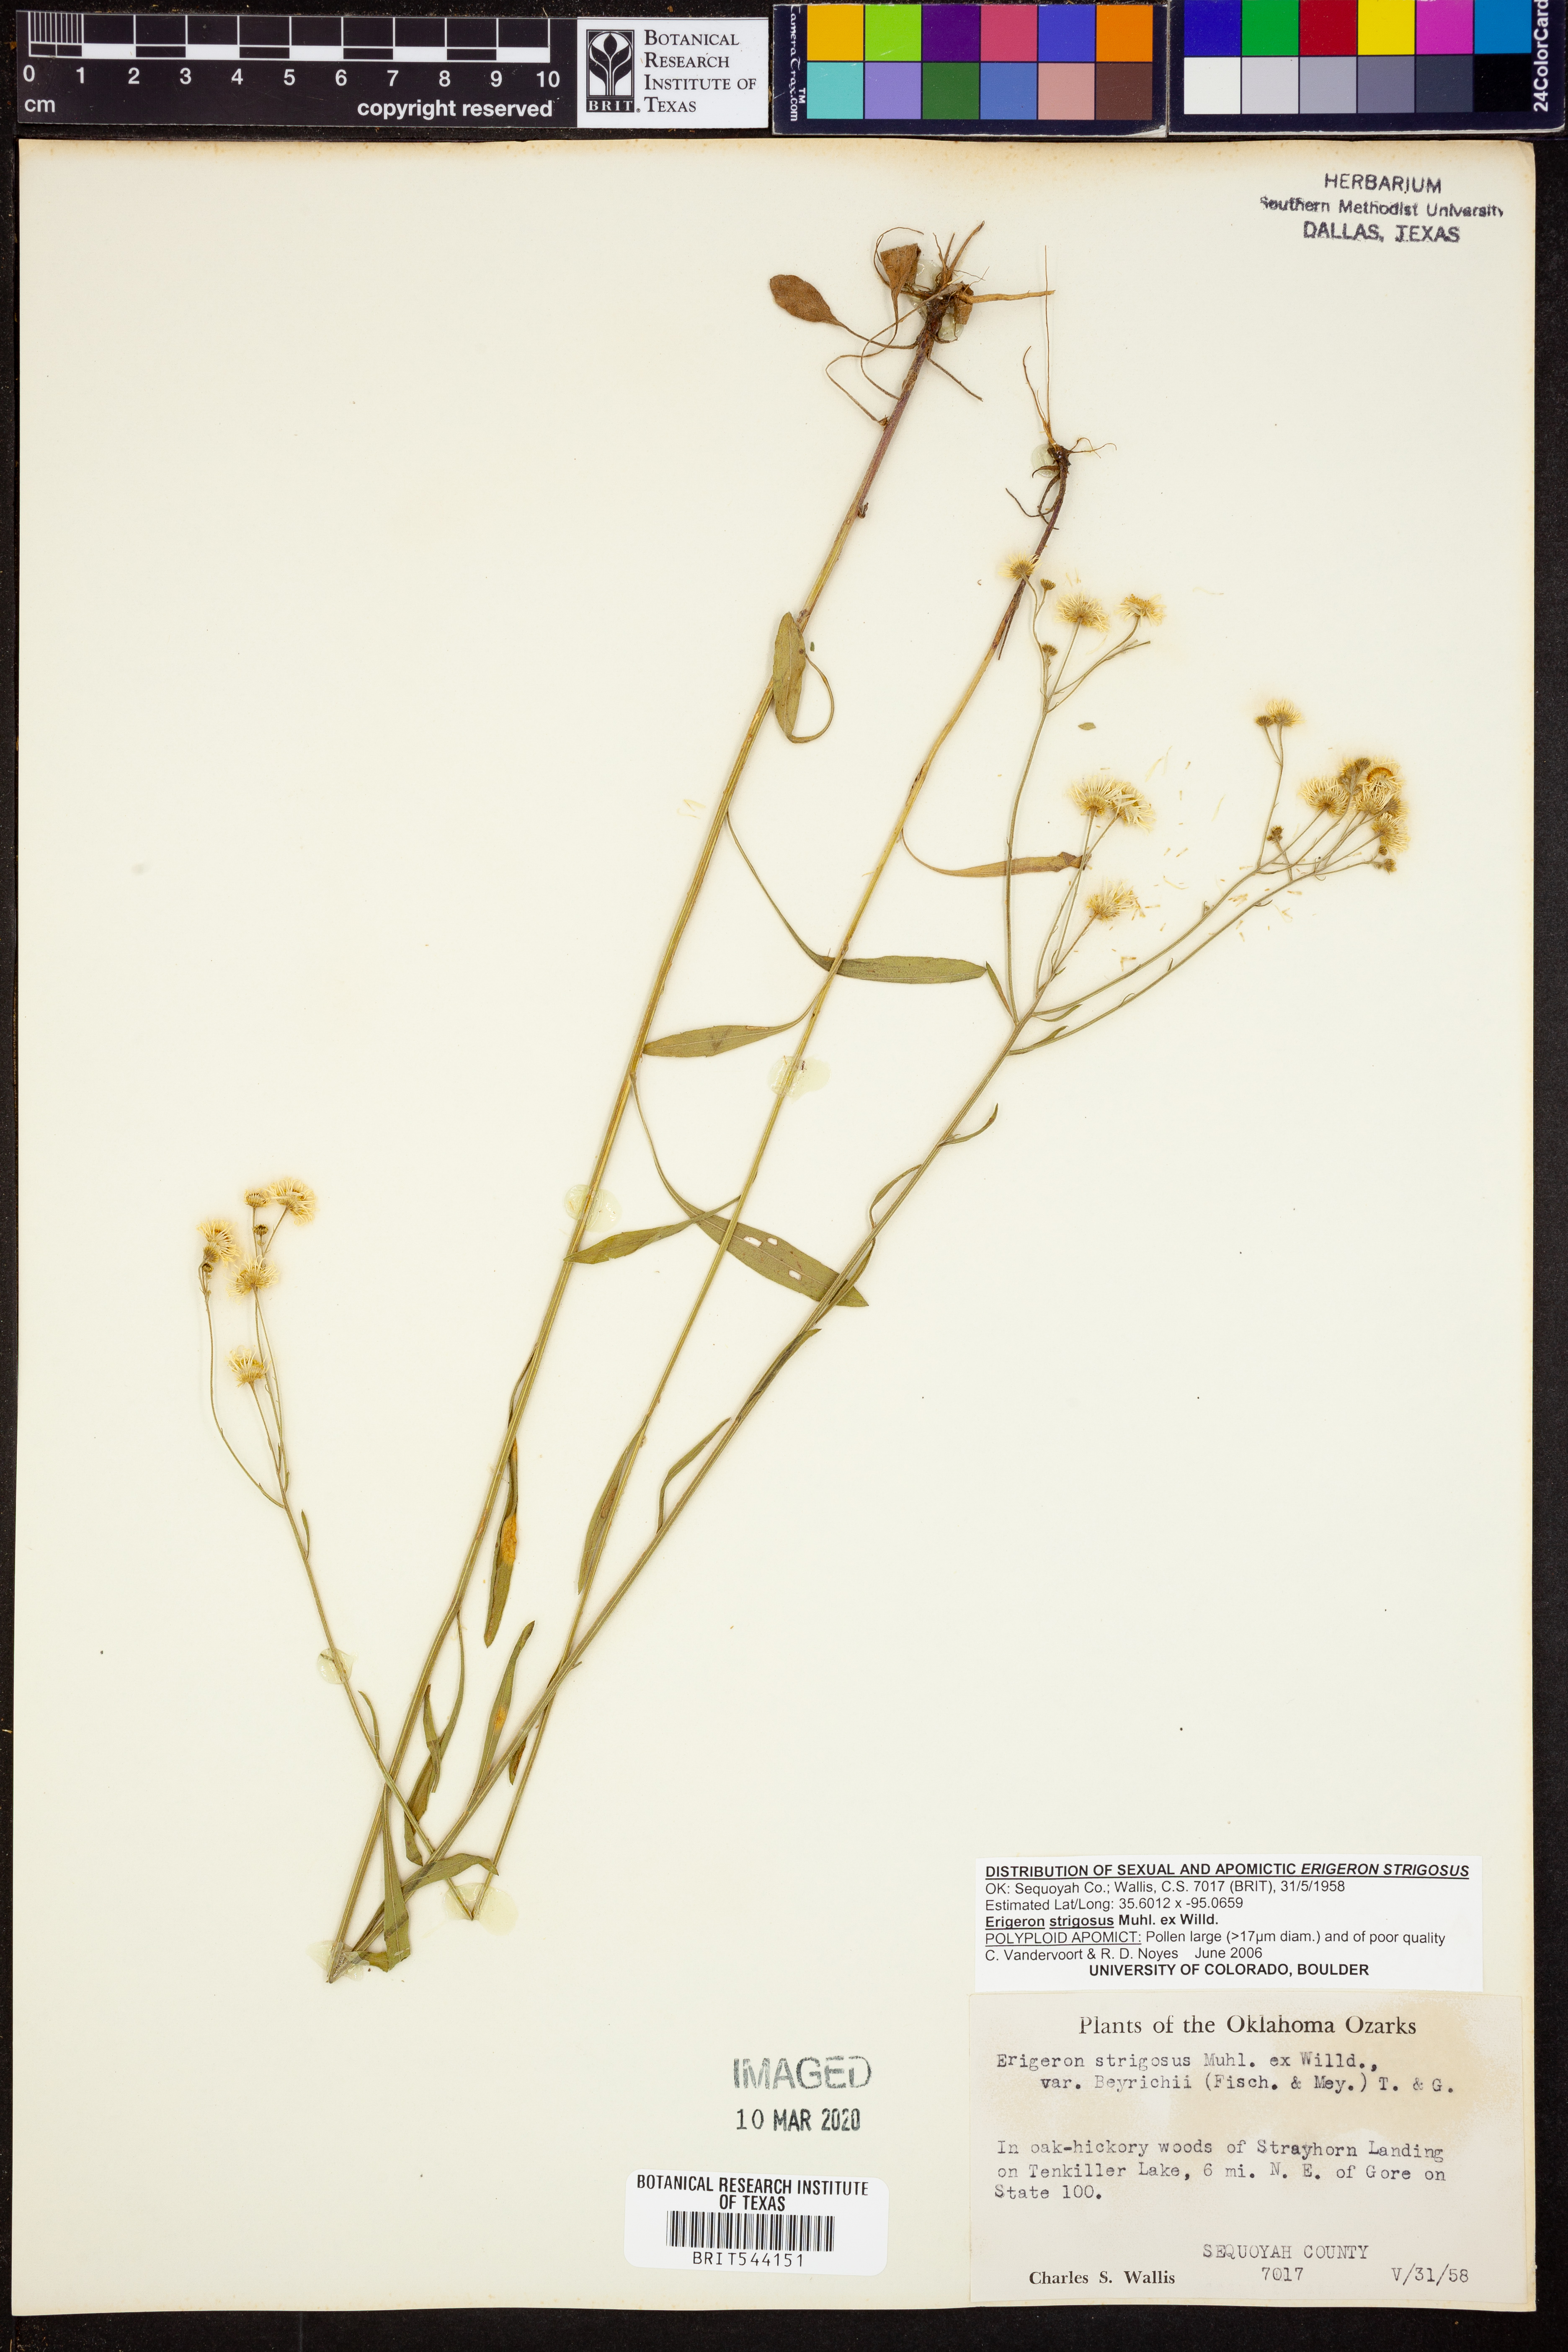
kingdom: Plantae
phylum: Tracheophyta
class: Magnoliopsida
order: Asterales
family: Asteraceae
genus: Erigeron
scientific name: Erigeron strigosus
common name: Common eastern fleabane
